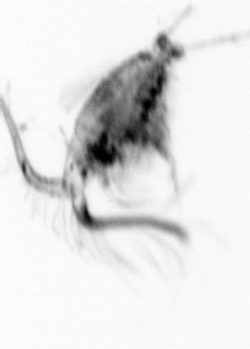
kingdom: Animalia
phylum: Arthropoda
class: Copepoda
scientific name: Copepoda
